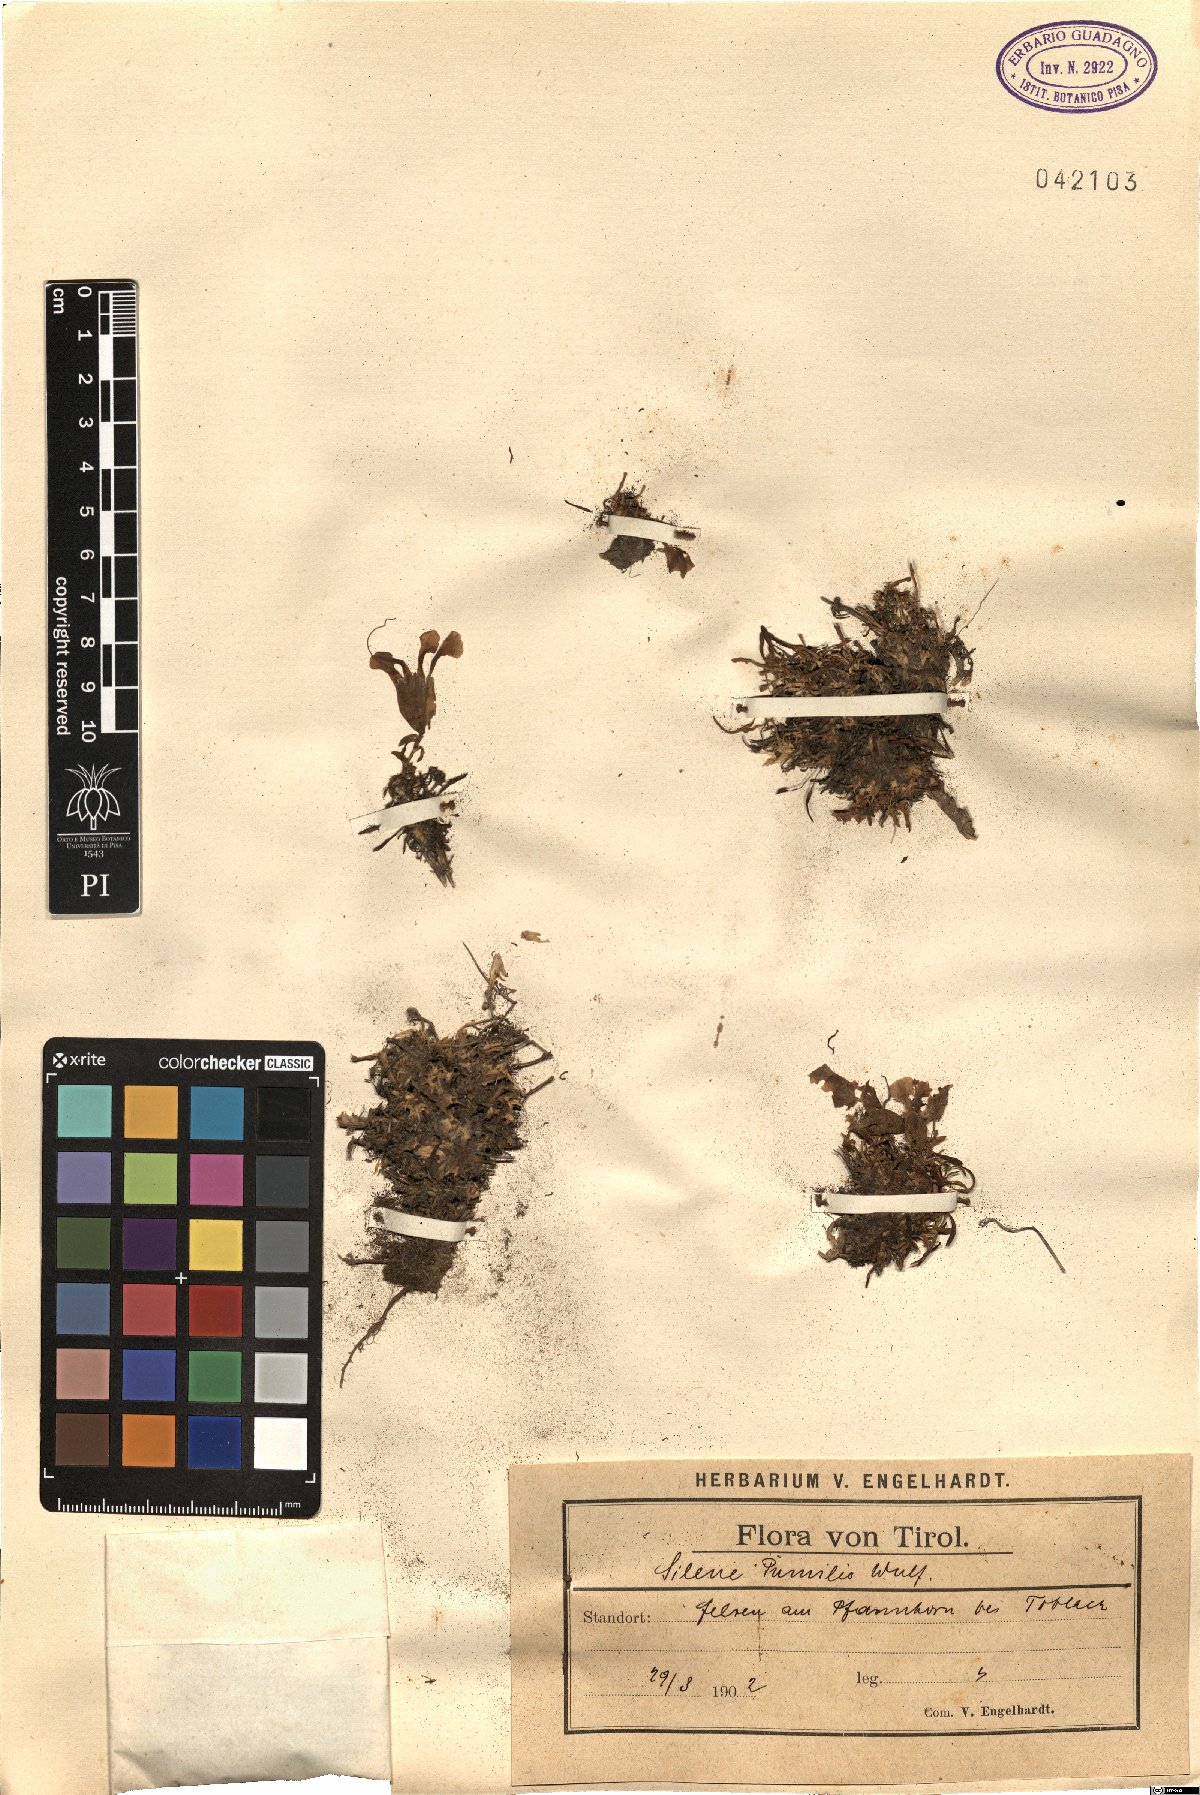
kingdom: Plantae
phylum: Tracheophyta
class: Magnoliopsida
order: Caryophyllales
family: Caryophyllaceae
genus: Saponaria
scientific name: Saponaria pumila
